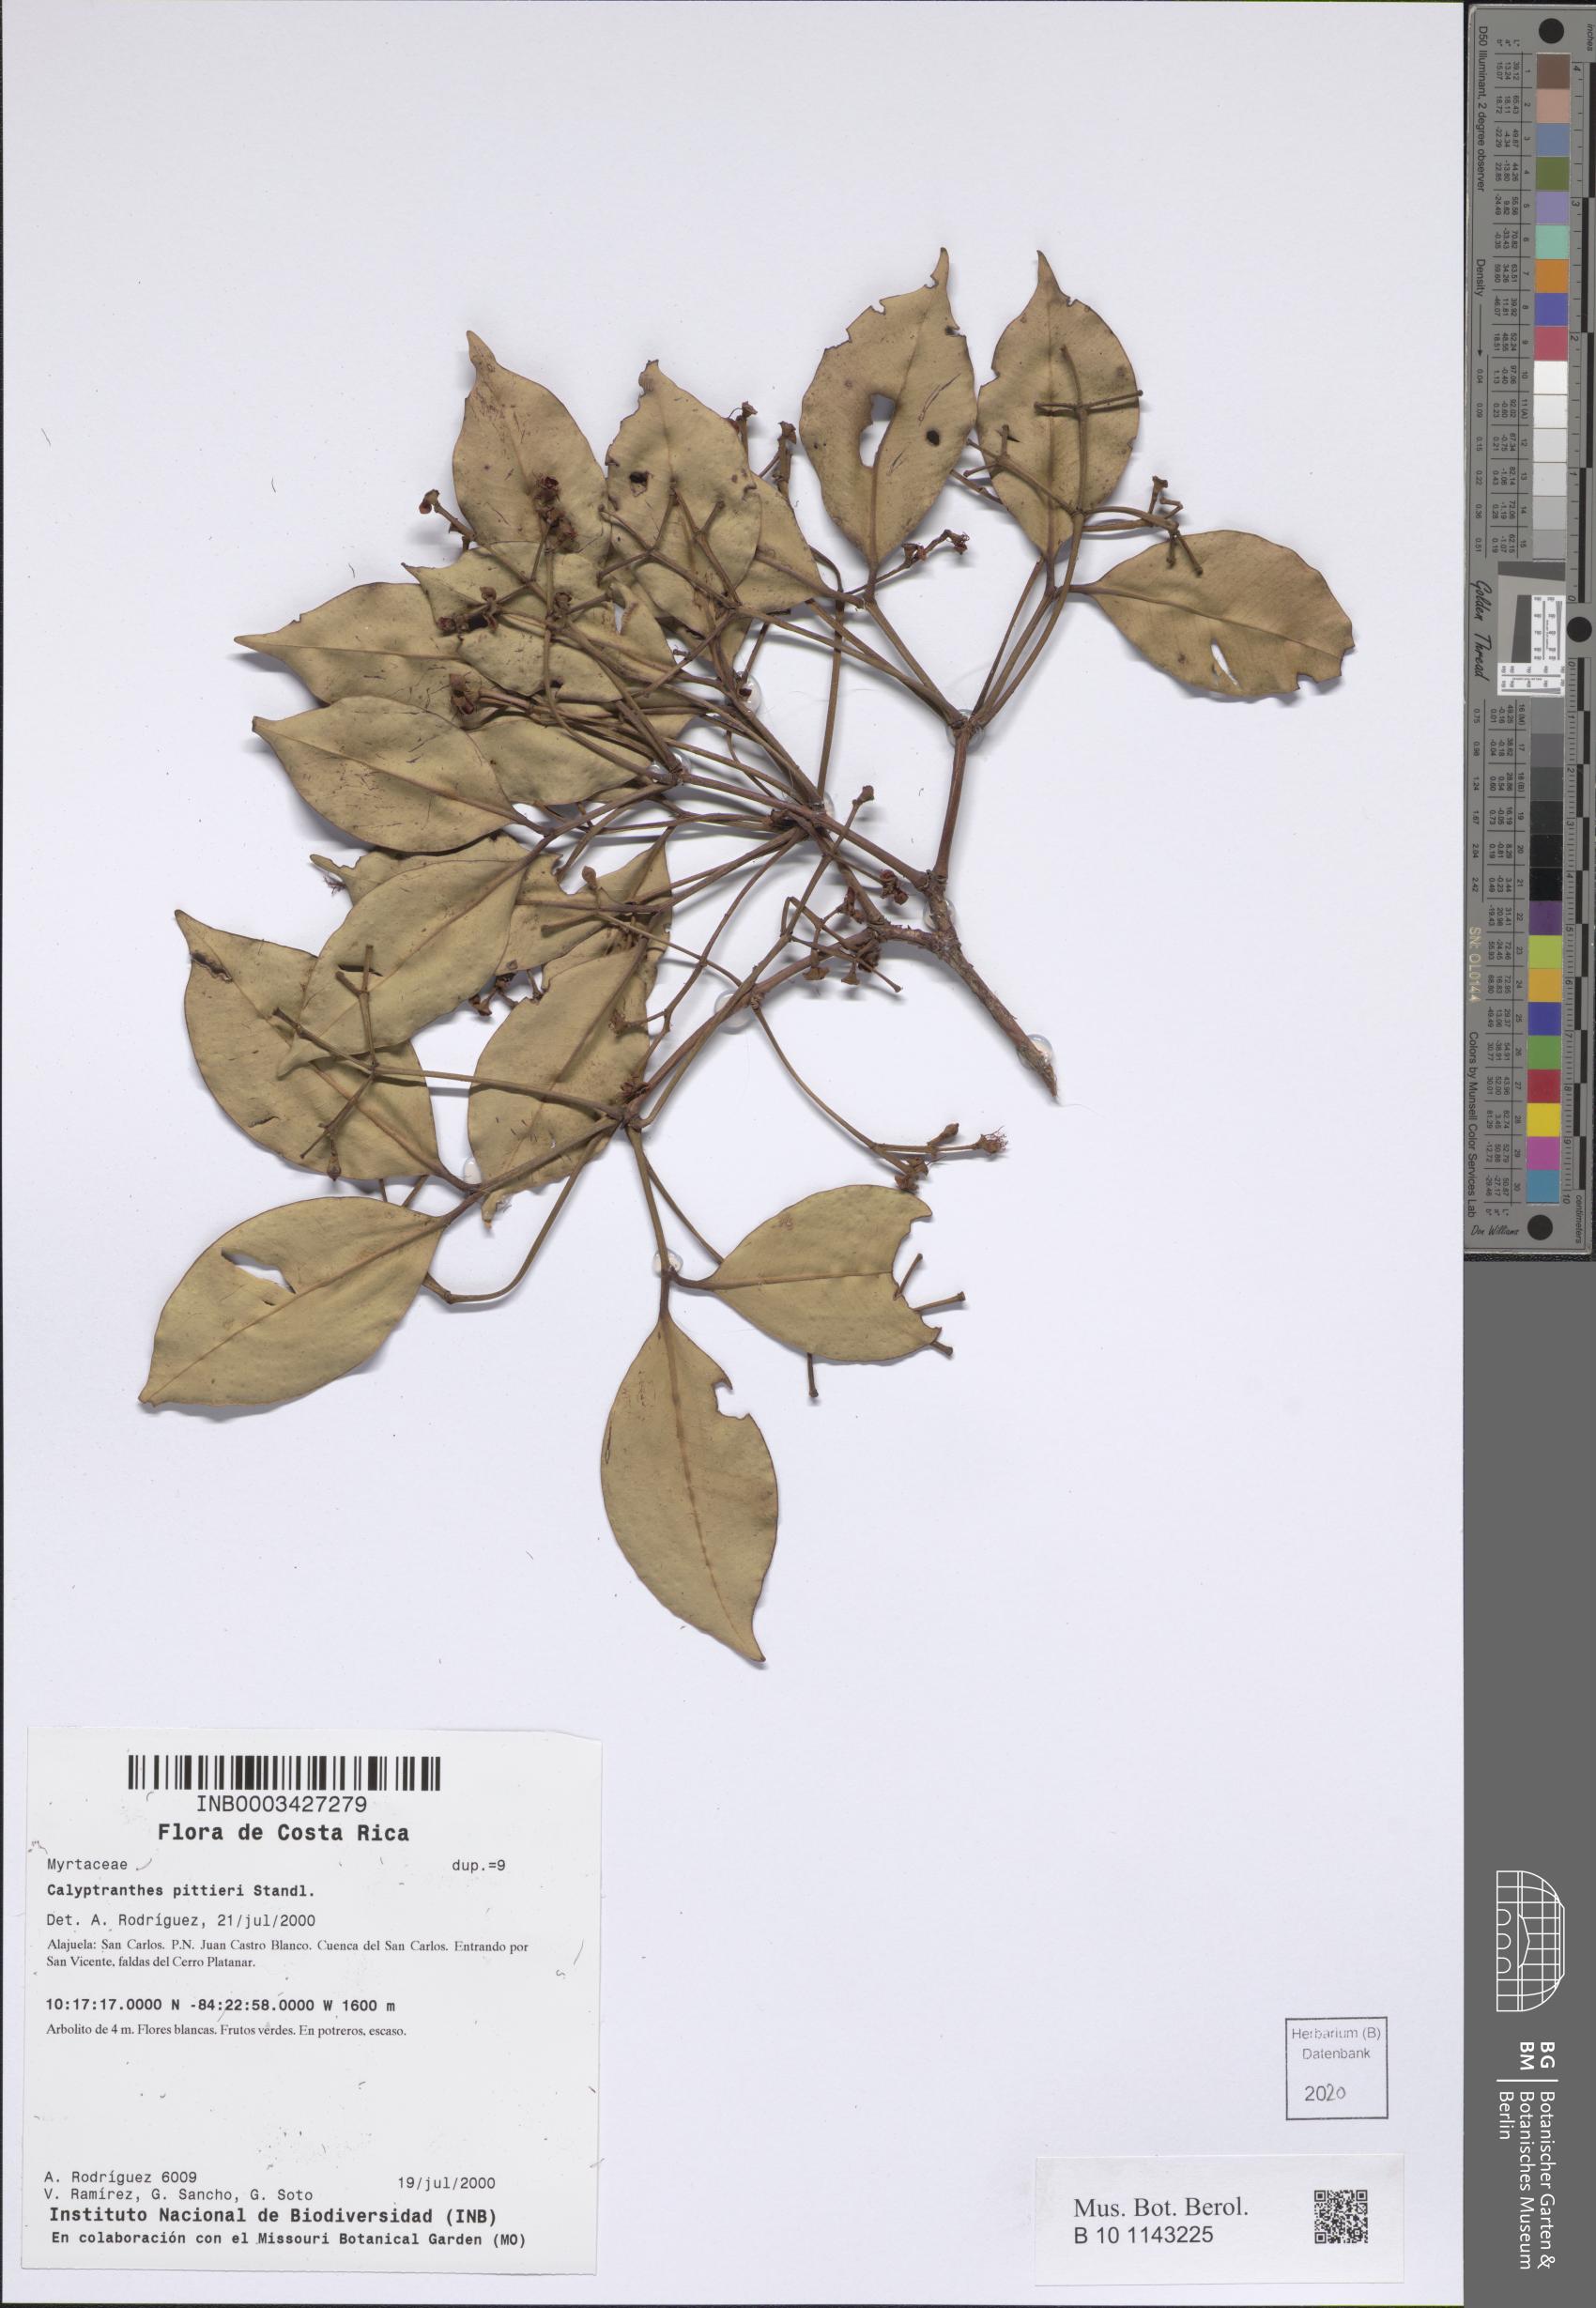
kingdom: Plantae
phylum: Tracheophyta
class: Magnoliopsida
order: Myrtales
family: Myrtaceae
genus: Myrcia
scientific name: Myrcia pittieri
